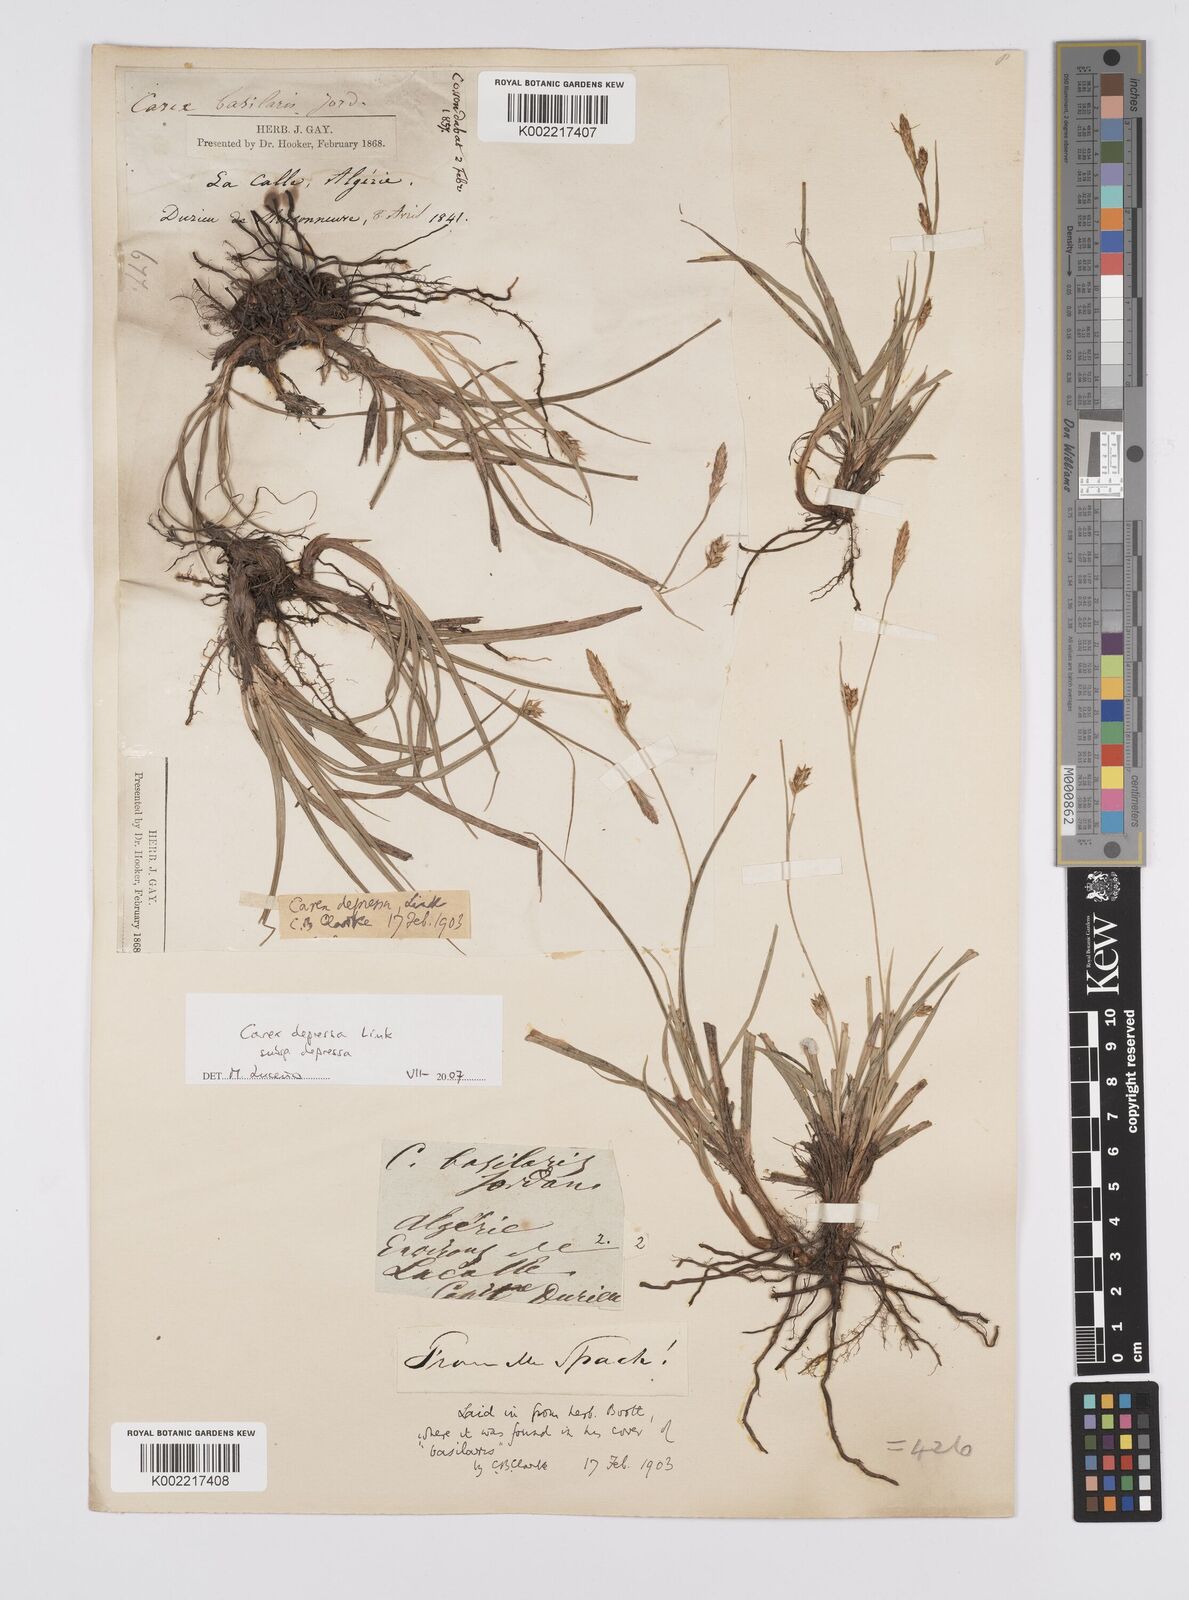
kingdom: Plantae
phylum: Tracheophyta
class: Liliopsida
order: Poales
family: Cyperaceae
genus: Carex
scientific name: Carex depressa
